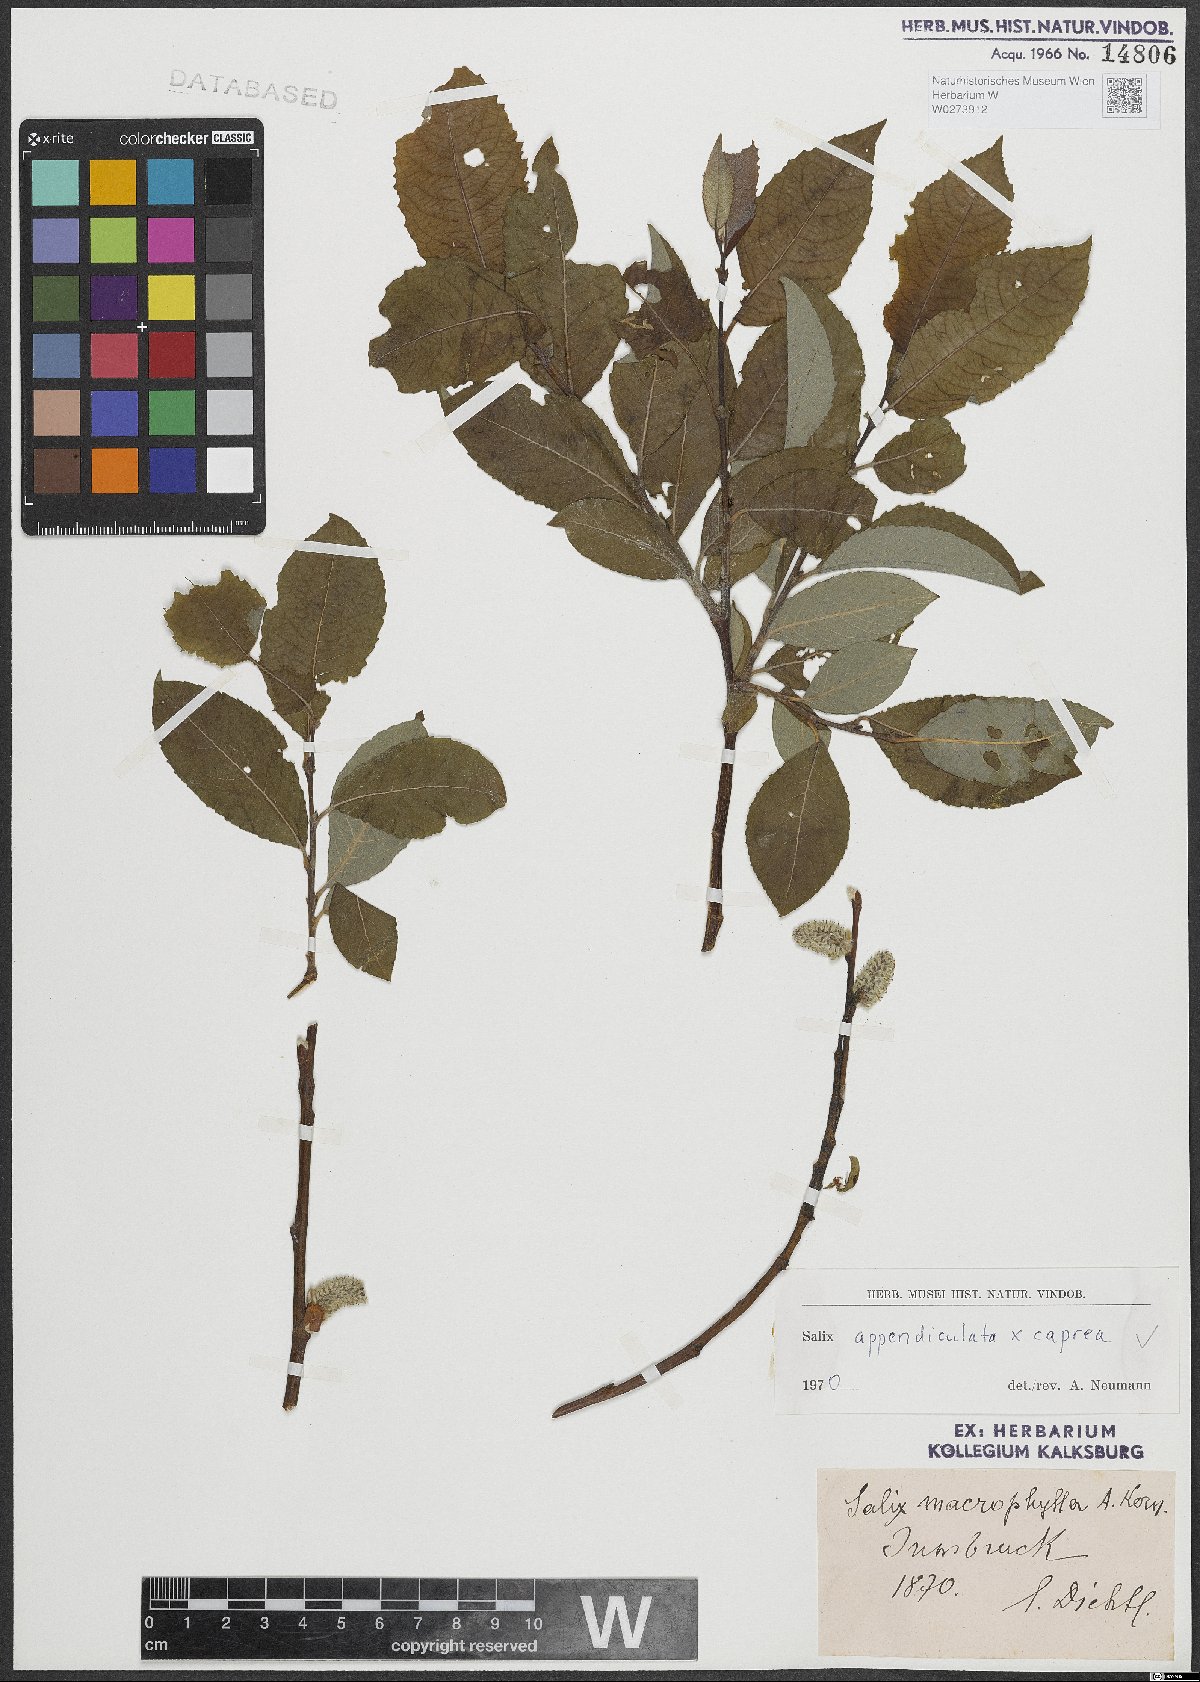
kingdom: Plantae
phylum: Tracheophyta
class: Magnoliopsida
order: Malpighiales
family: Salicaceae
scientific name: Salicaceae
